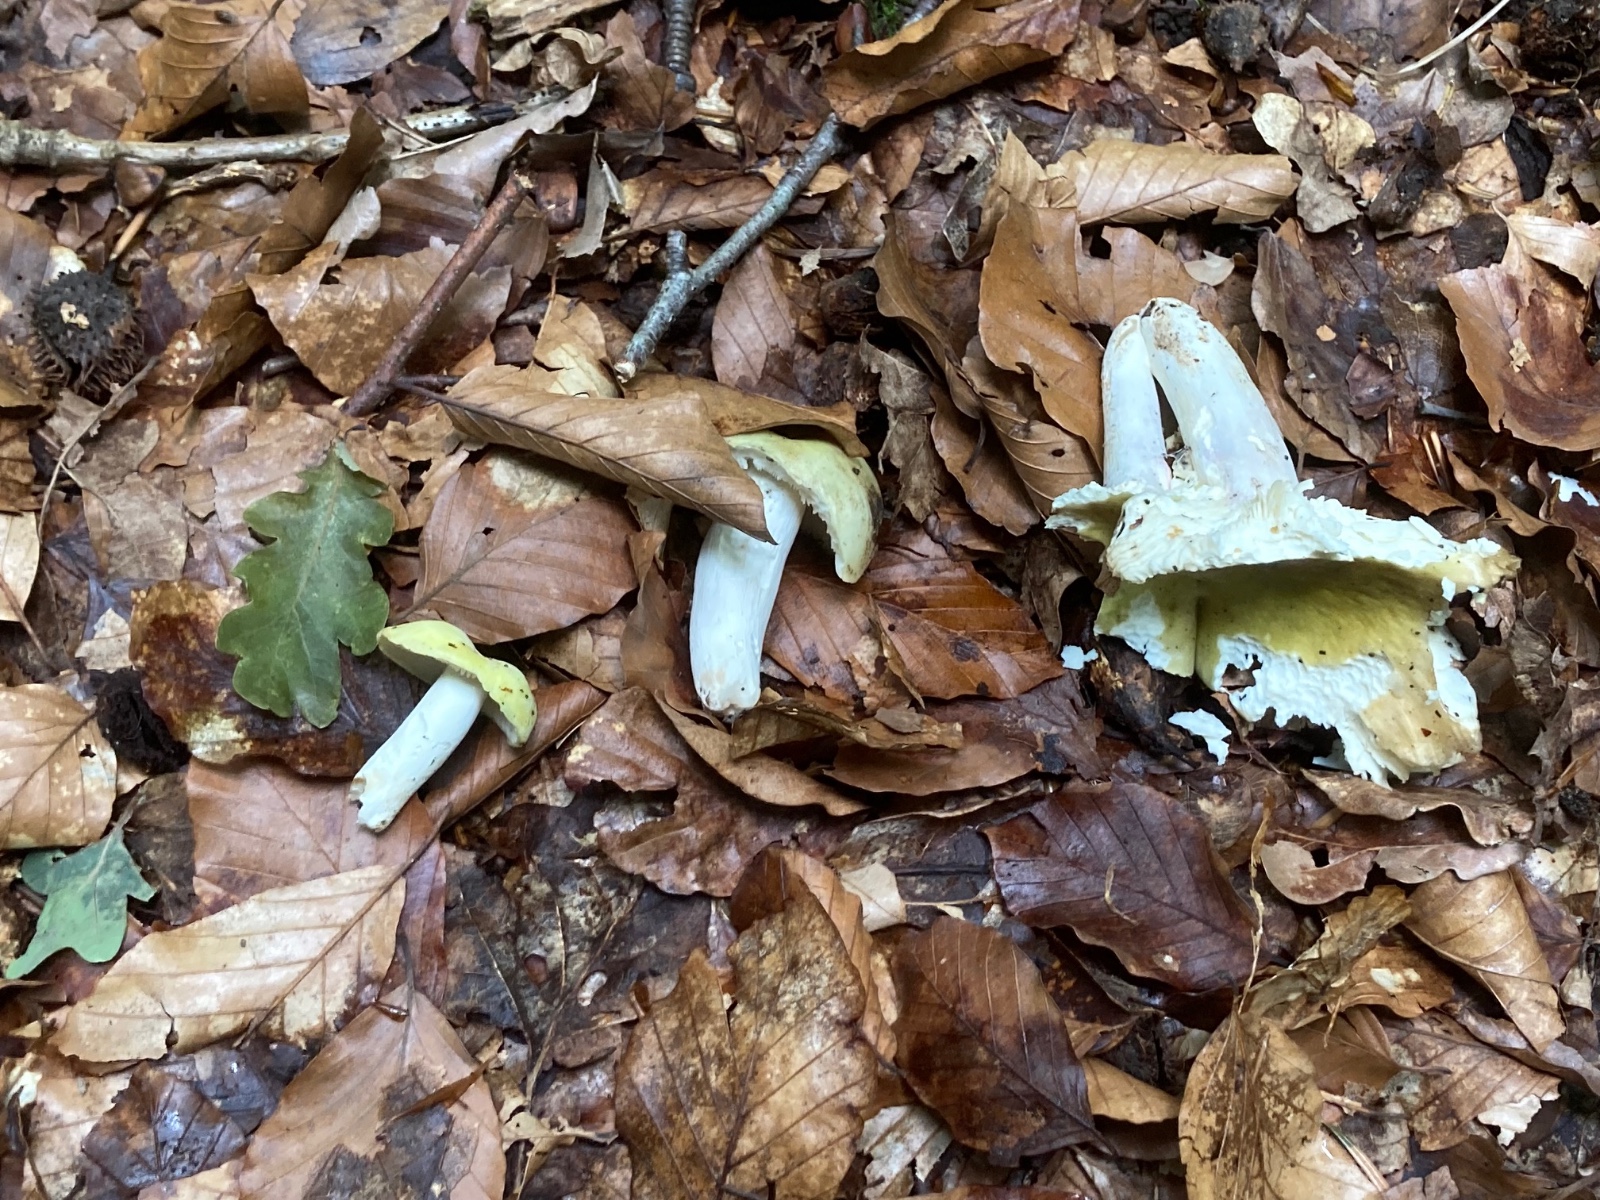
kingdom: Fungi
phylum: Basidiomycota
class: Agaricomycetes
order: Russulales
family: Russulaceae
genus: Russula
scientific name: Russula violeipes
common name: ferskengul skørhat
